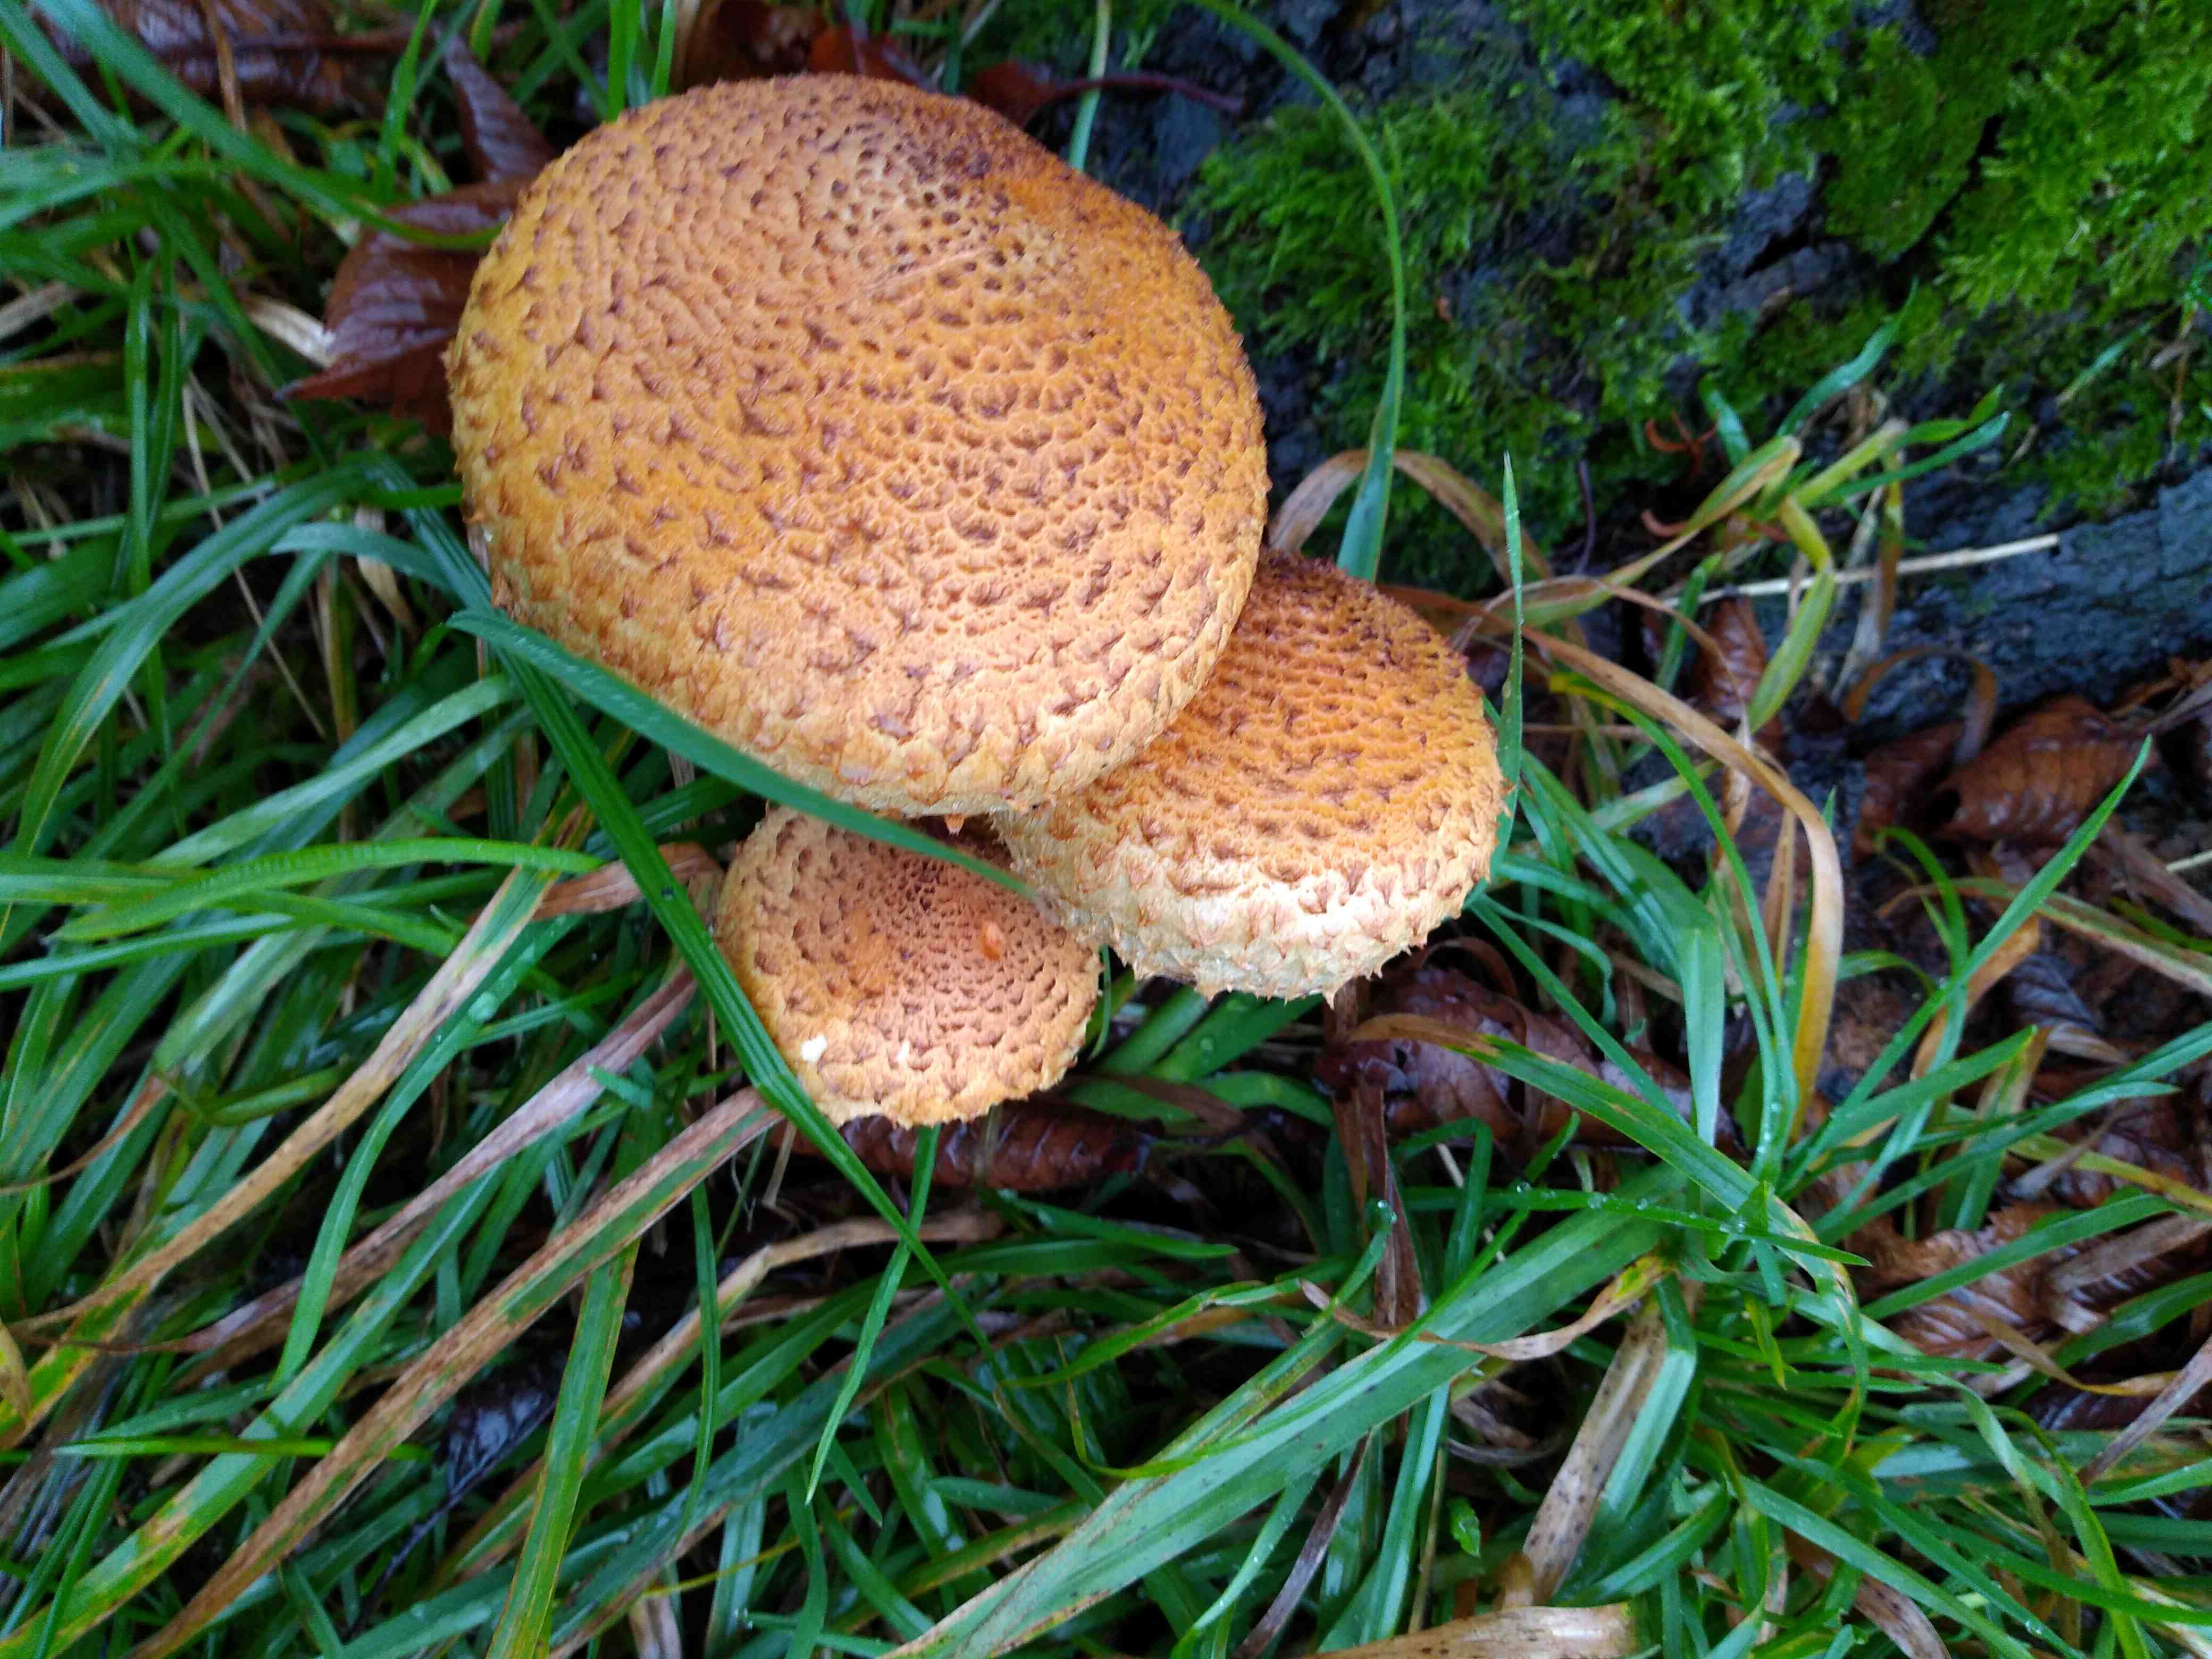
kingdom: Fungi
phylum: Basidiomycota
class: Agaricomycetes
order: Agaricales
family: Strophariaceae
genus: Pholiota
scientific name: Pholiota squarrosa
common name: krumskællet skælhat
